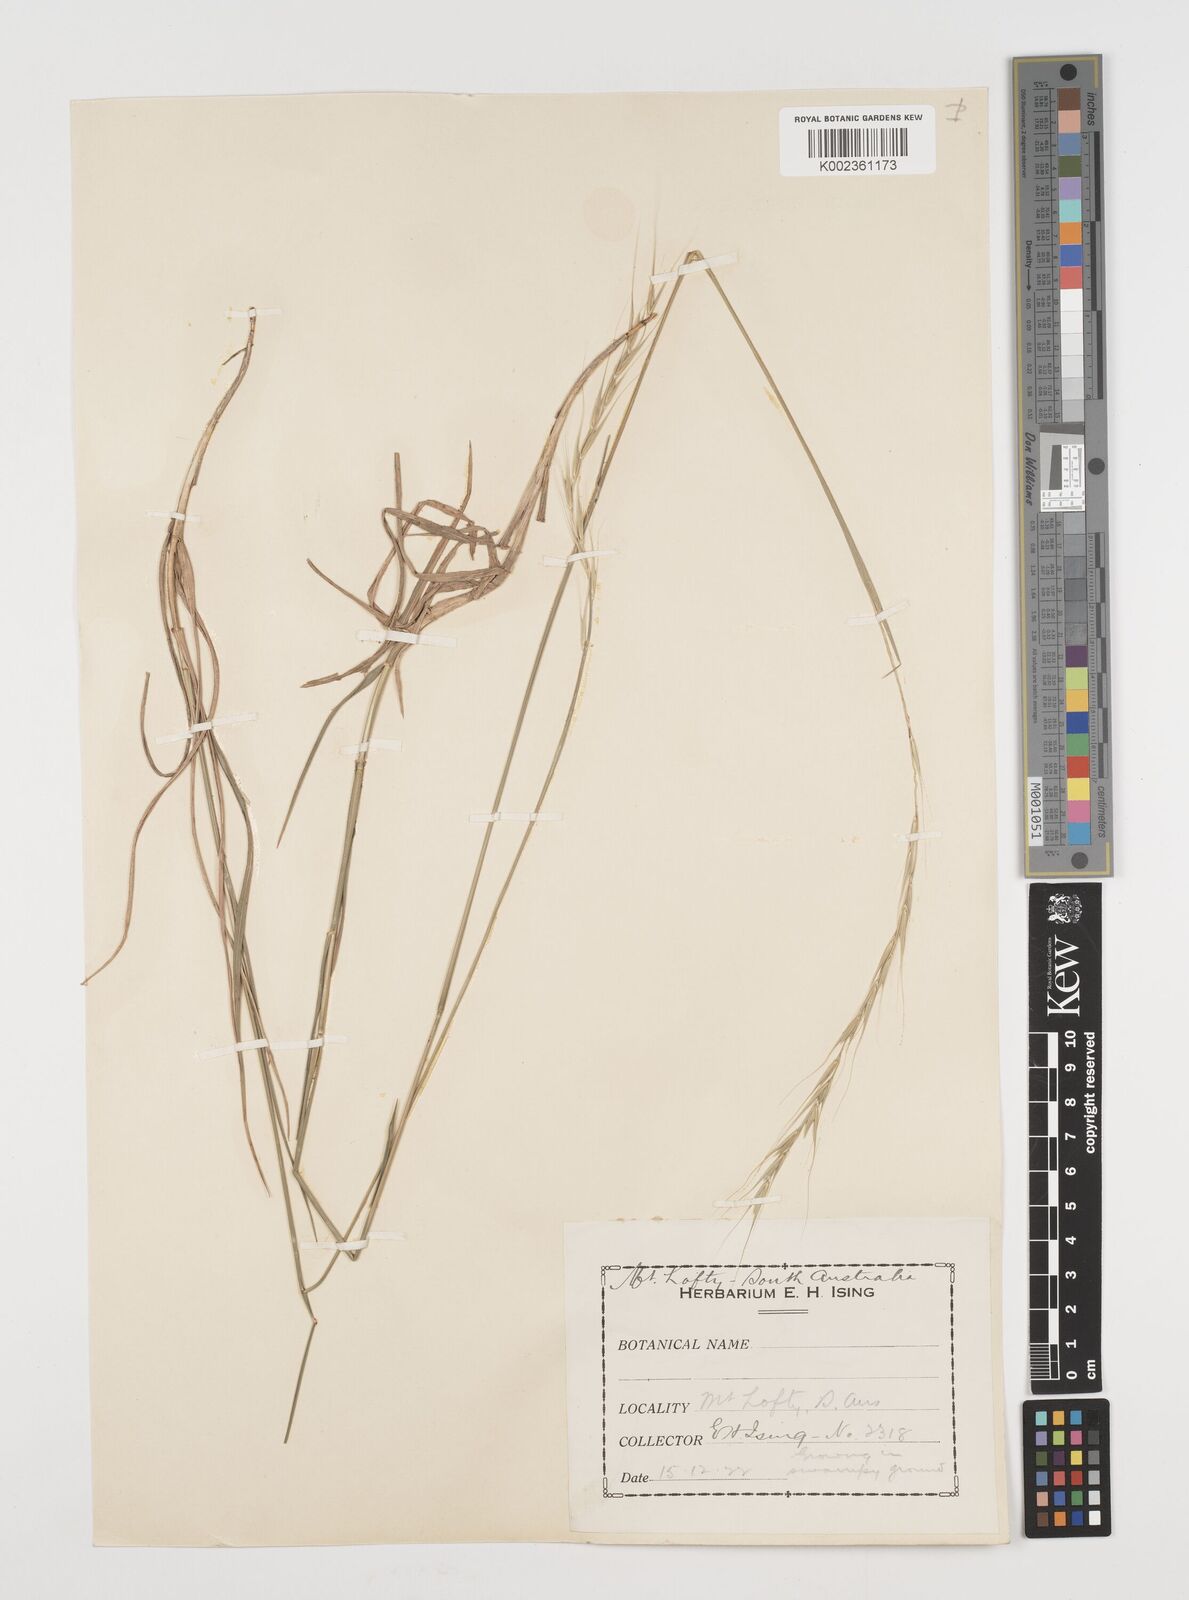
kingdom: Plantae
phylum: Tracheophyta
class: Liliopsida
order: Poales
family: Poaceae
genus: Microlaena
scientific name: Microlaena stipoides
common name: Meadow ricegrass
